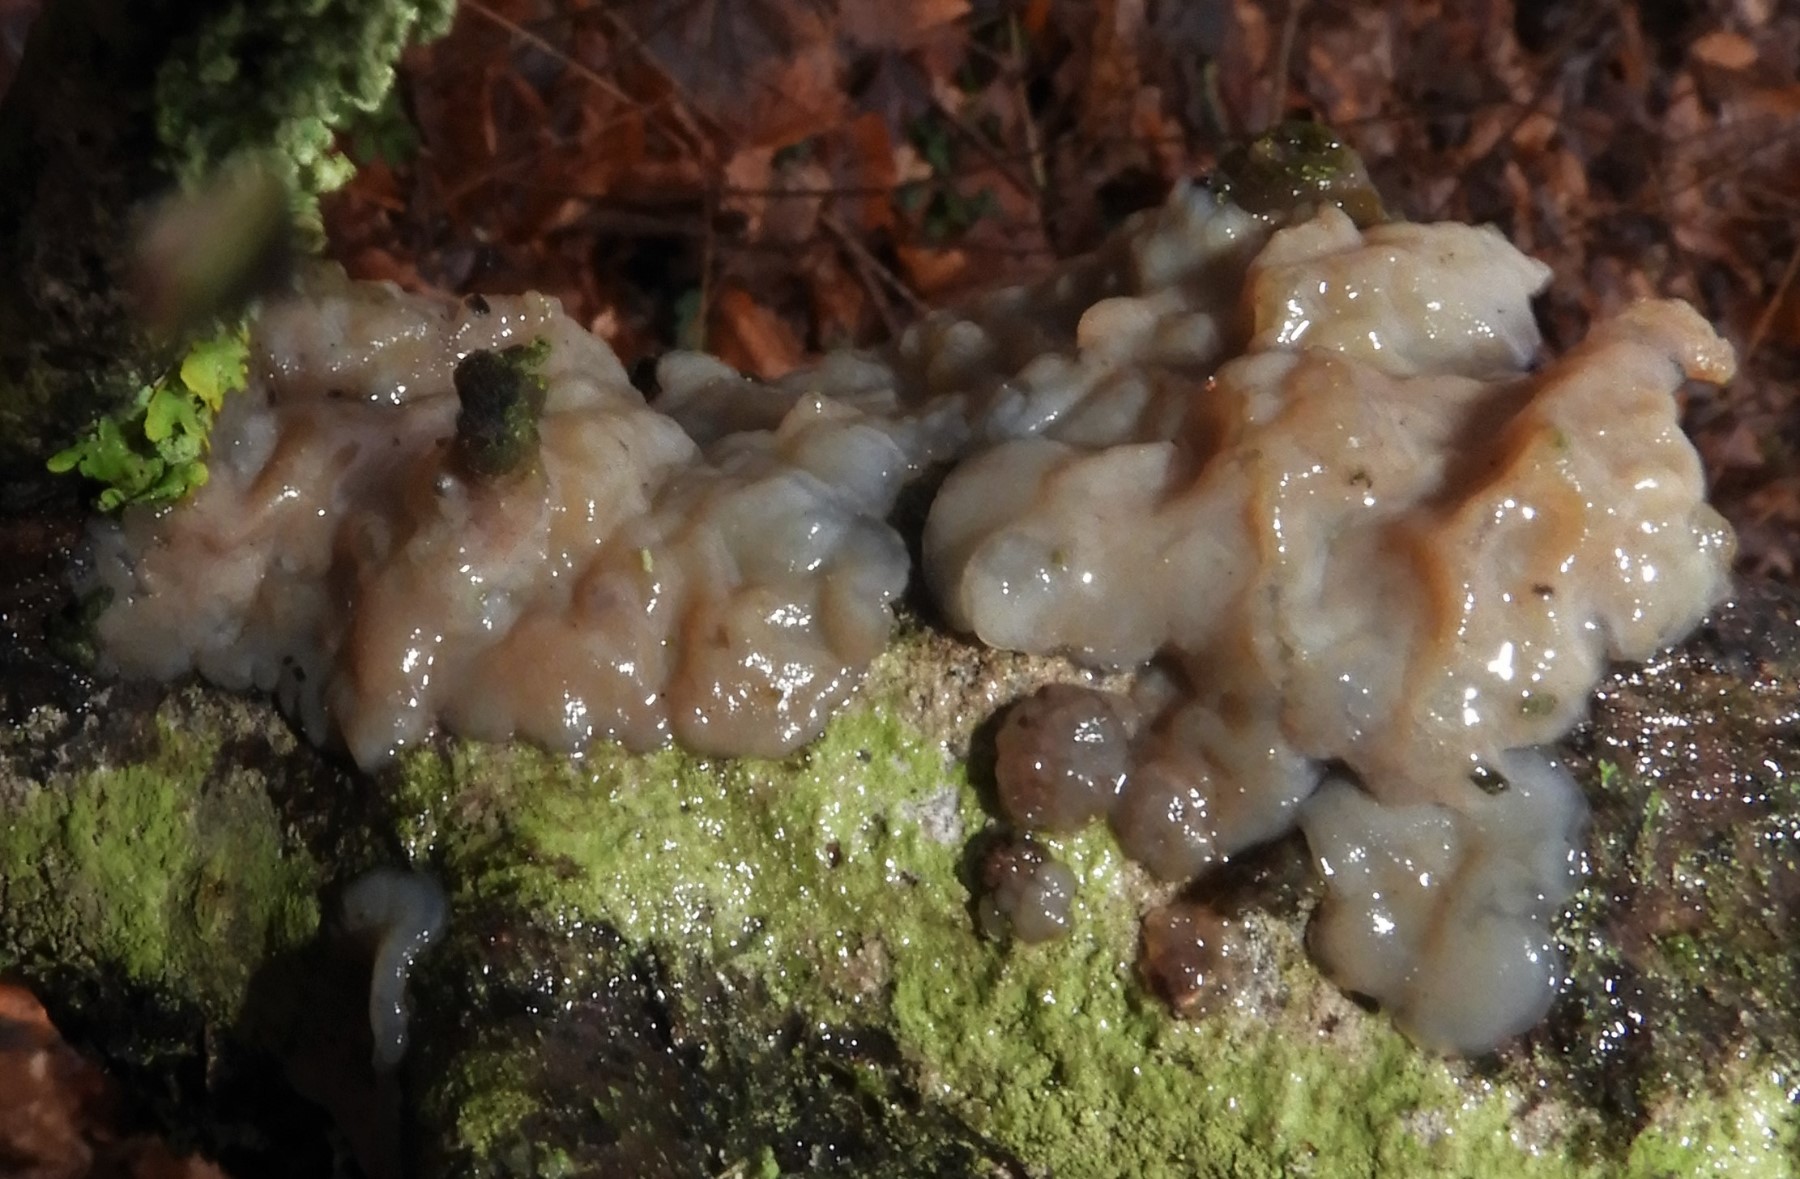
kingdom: Fungi
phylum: Basidiomycota
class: Agaricomycetes
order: Auriculariales
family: Auriculariaceae
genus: Exidia
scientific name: Exidia thuretiana
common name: hvidlig bævretop
